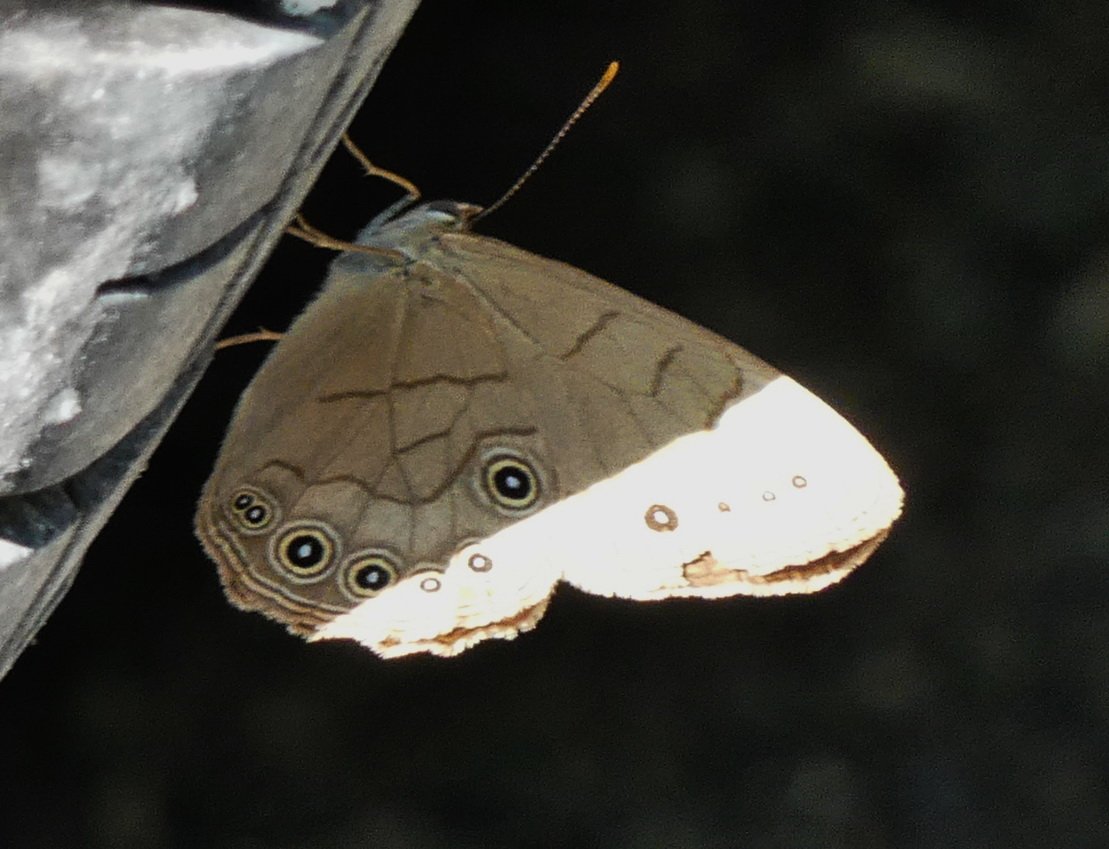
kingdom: Animalia
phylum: Arthropoda
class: Insecta
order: Lepidoptera
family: Nymphalidae
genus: Lethe
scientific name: Lethe eurydice
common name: Appalachian Eyed Brown
